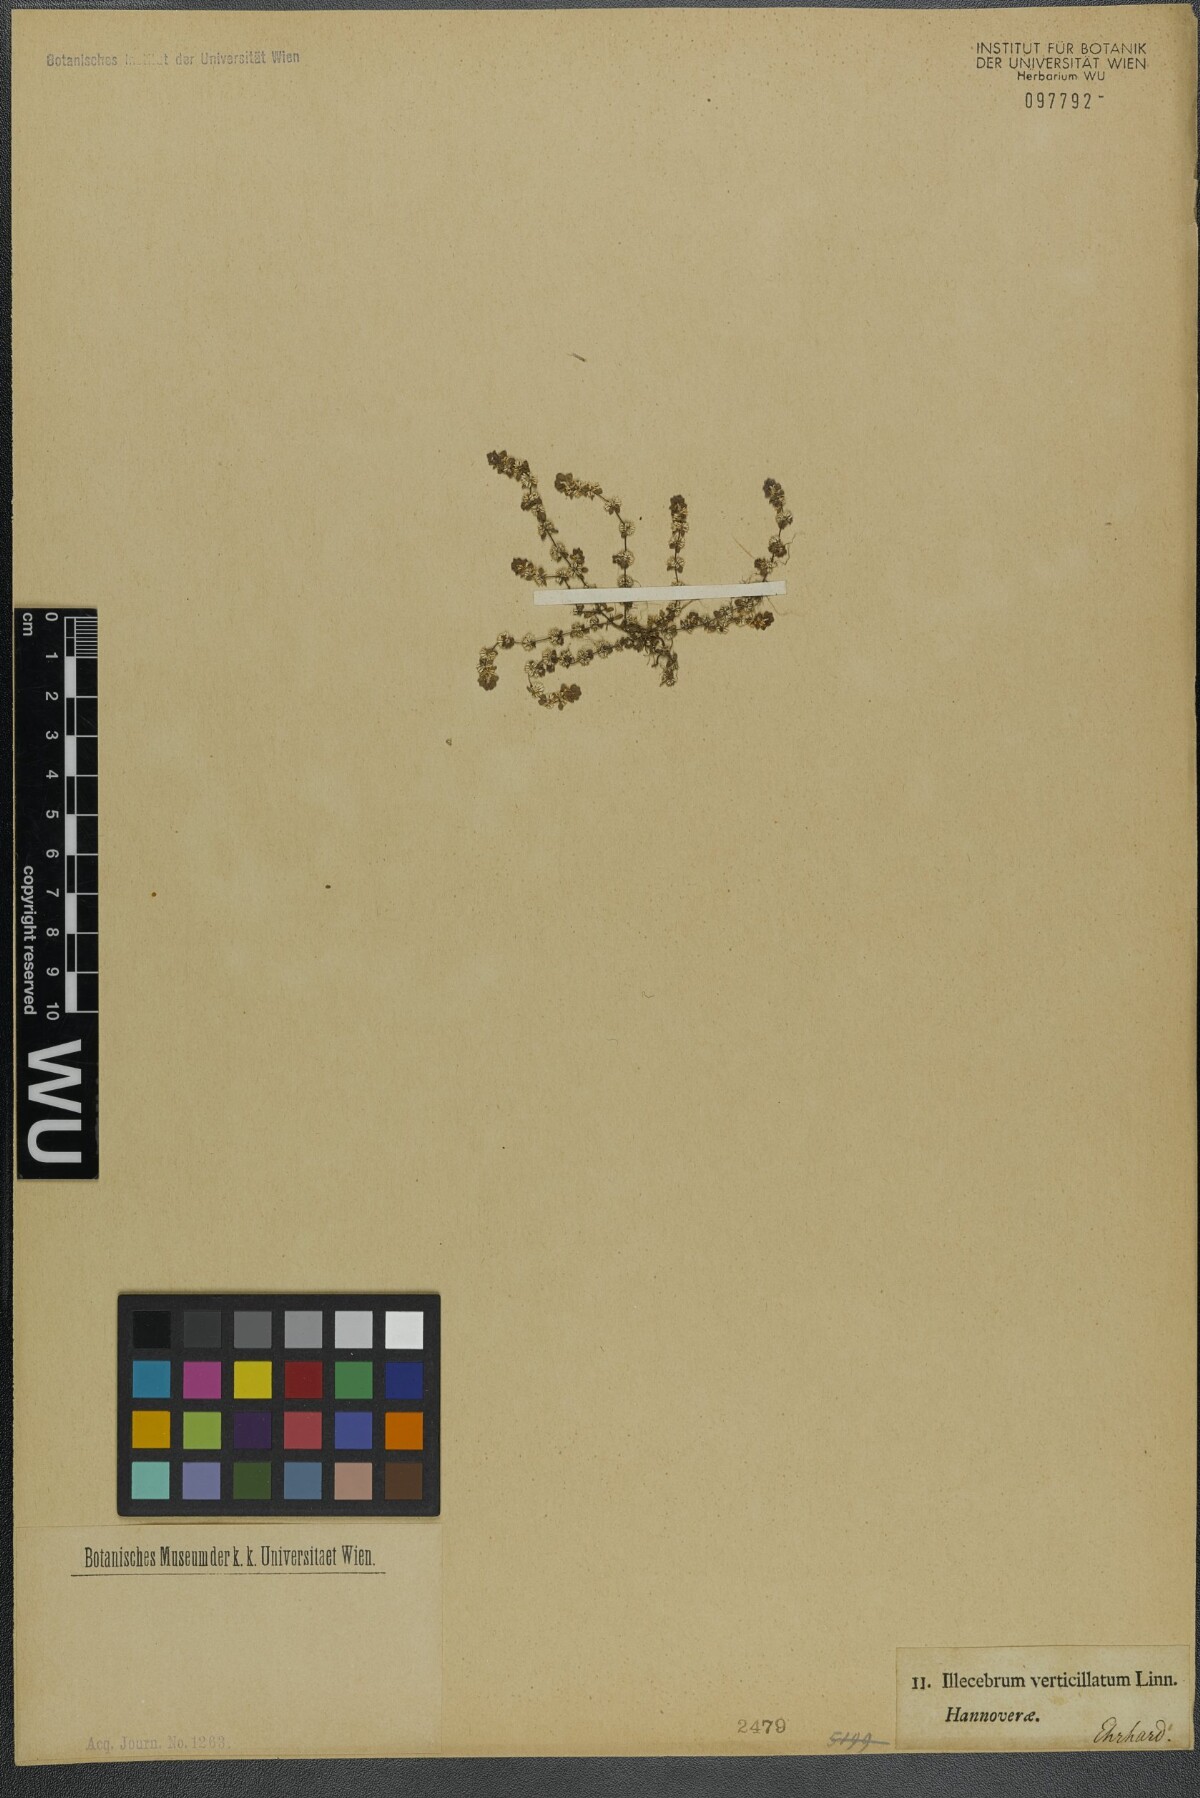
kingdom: Plantae
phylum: Tracheophyta
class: Magnoliopsida
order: Caryophyllales
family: Caryophyllaceae
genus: Illecebrum
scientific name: Illecebrum verticillatum
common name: Coral necklace
